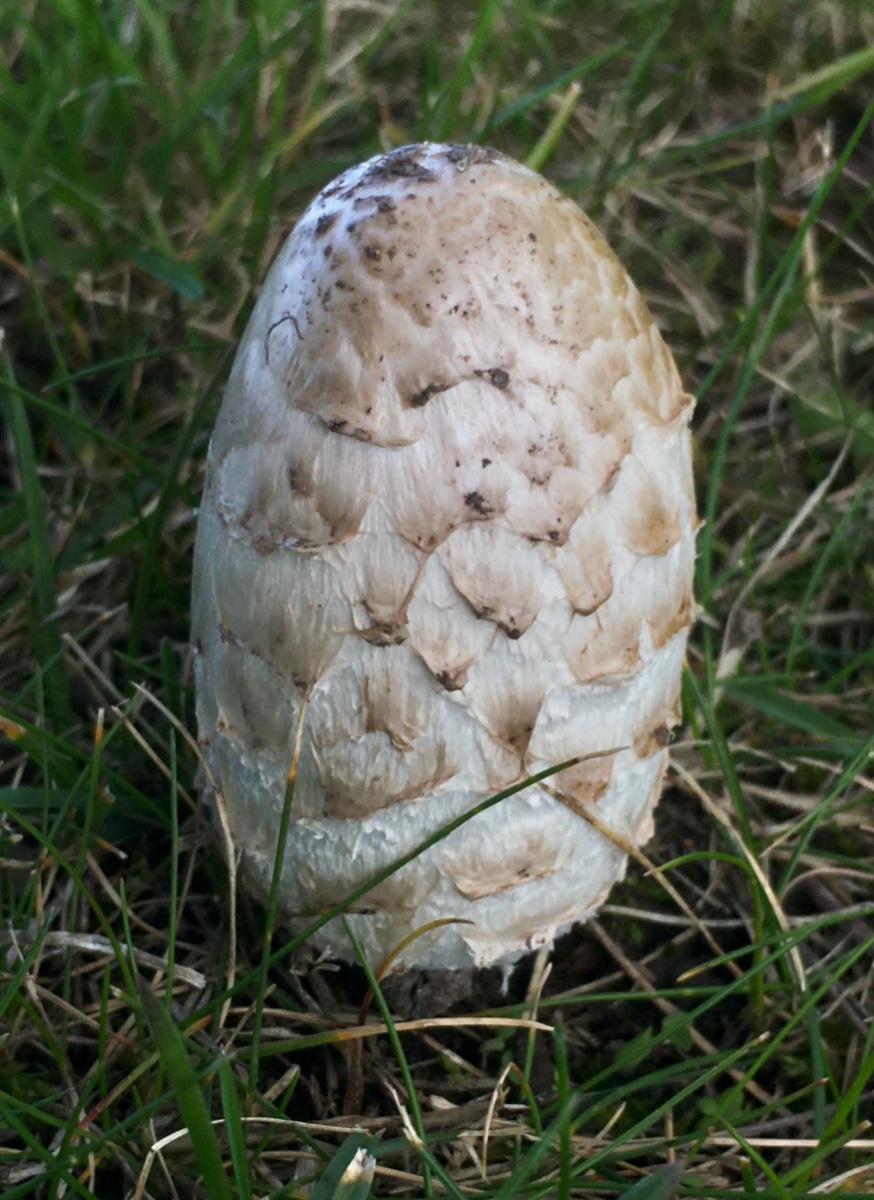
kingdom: Fungi
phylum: Basidiomycota
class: Agaricomycetes
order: Agaricales
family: Agaricaceae
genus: Coprinus
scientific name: Coprinus comatus
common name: stor parykhat
